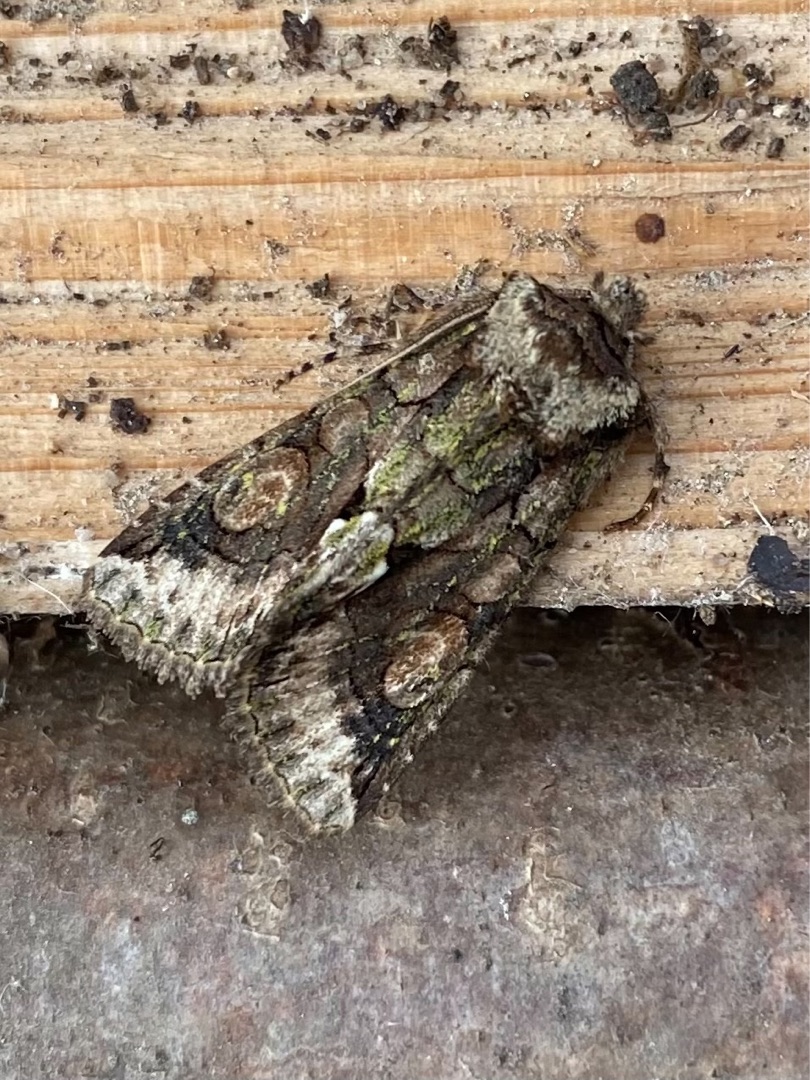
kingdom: Animalia
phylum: Arthropoda
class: Insecta
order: Lepidoptera
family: Noctuidae
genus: Allophyes
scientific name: Allophyes oxyacanthae
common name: Tjørneugle
